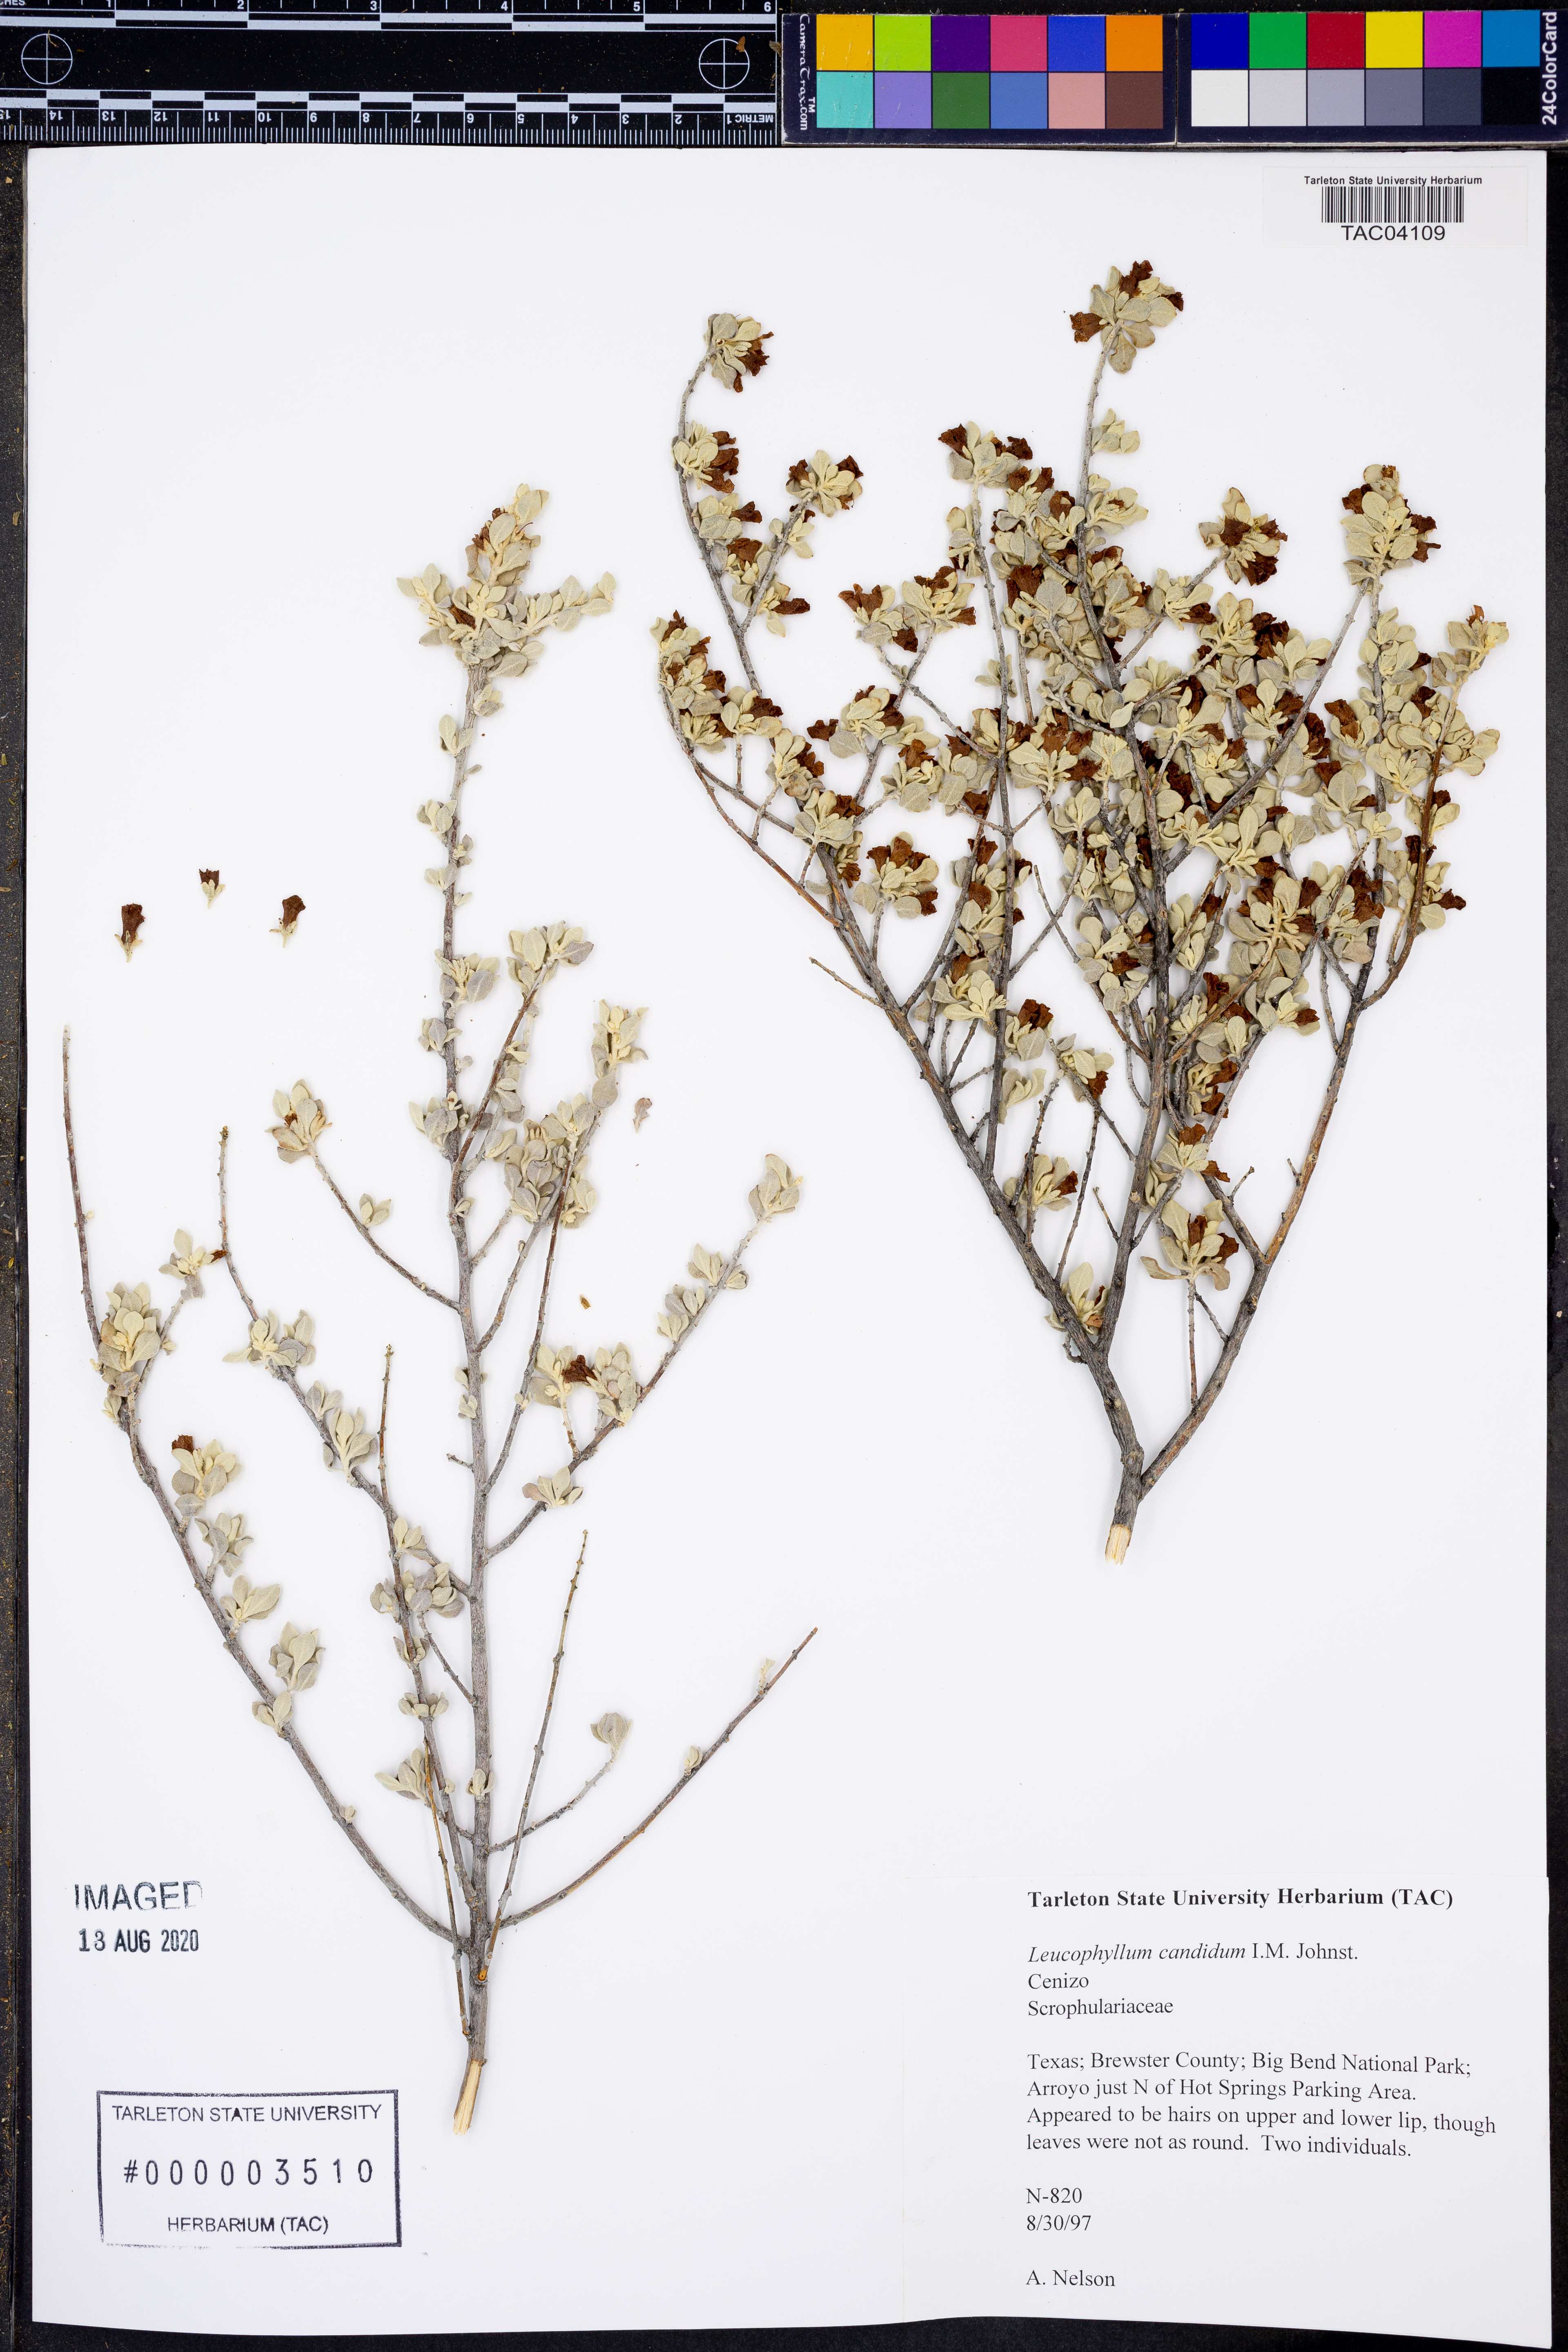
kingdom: Plantae
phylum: Tracheophyta
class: Magnoliopsida
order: Lamiales
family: Scrophulariaceae
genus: Leucophyllum
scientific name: Leucophyllum candidum
